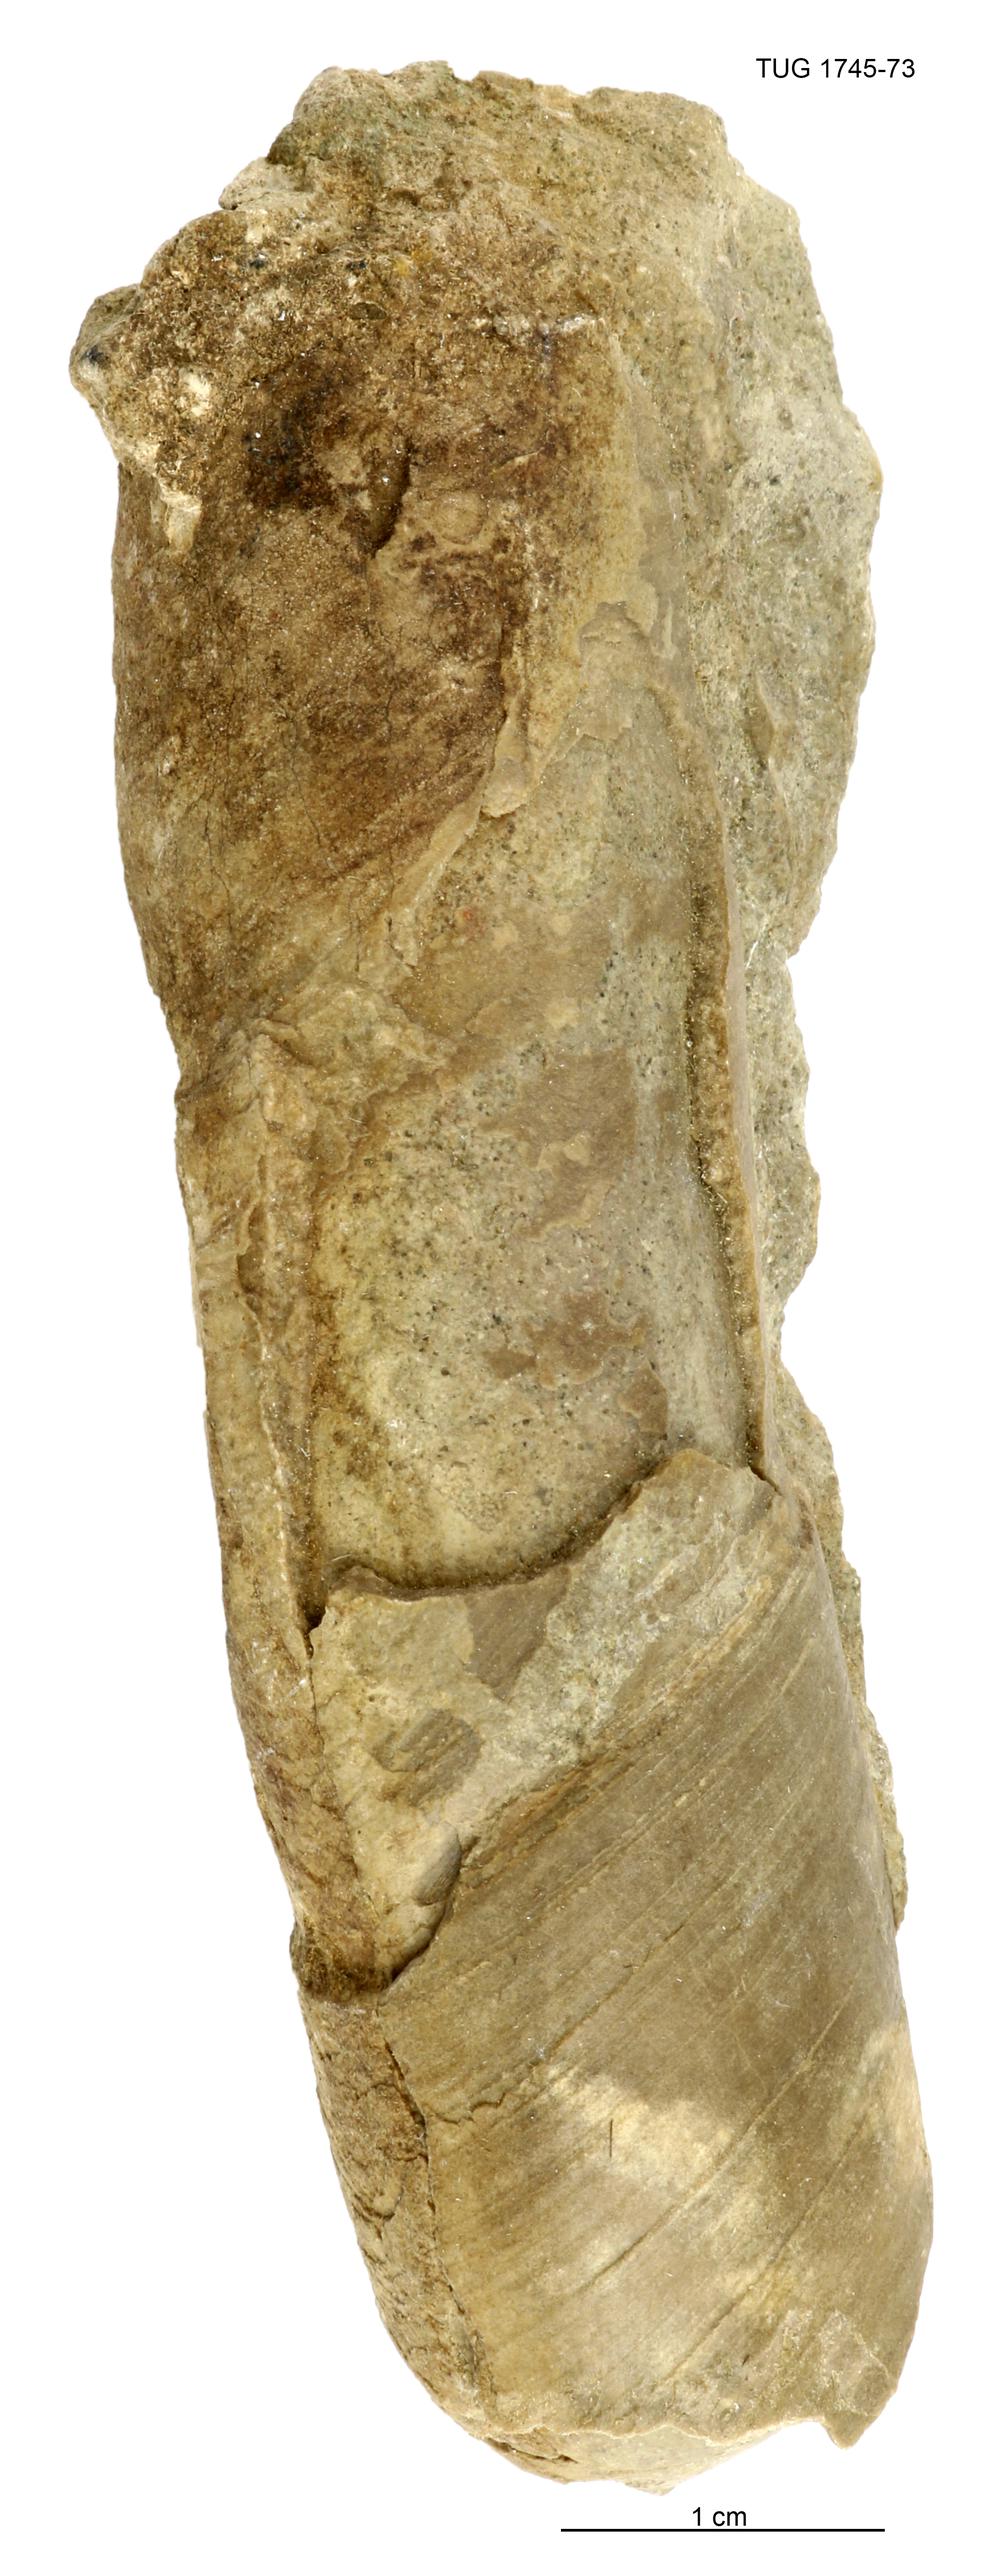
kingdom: Animalia
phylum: Mollusca
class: Cephalopoda
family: Tarphyceratidae
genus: Planctoceras
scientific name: Planctoceras
